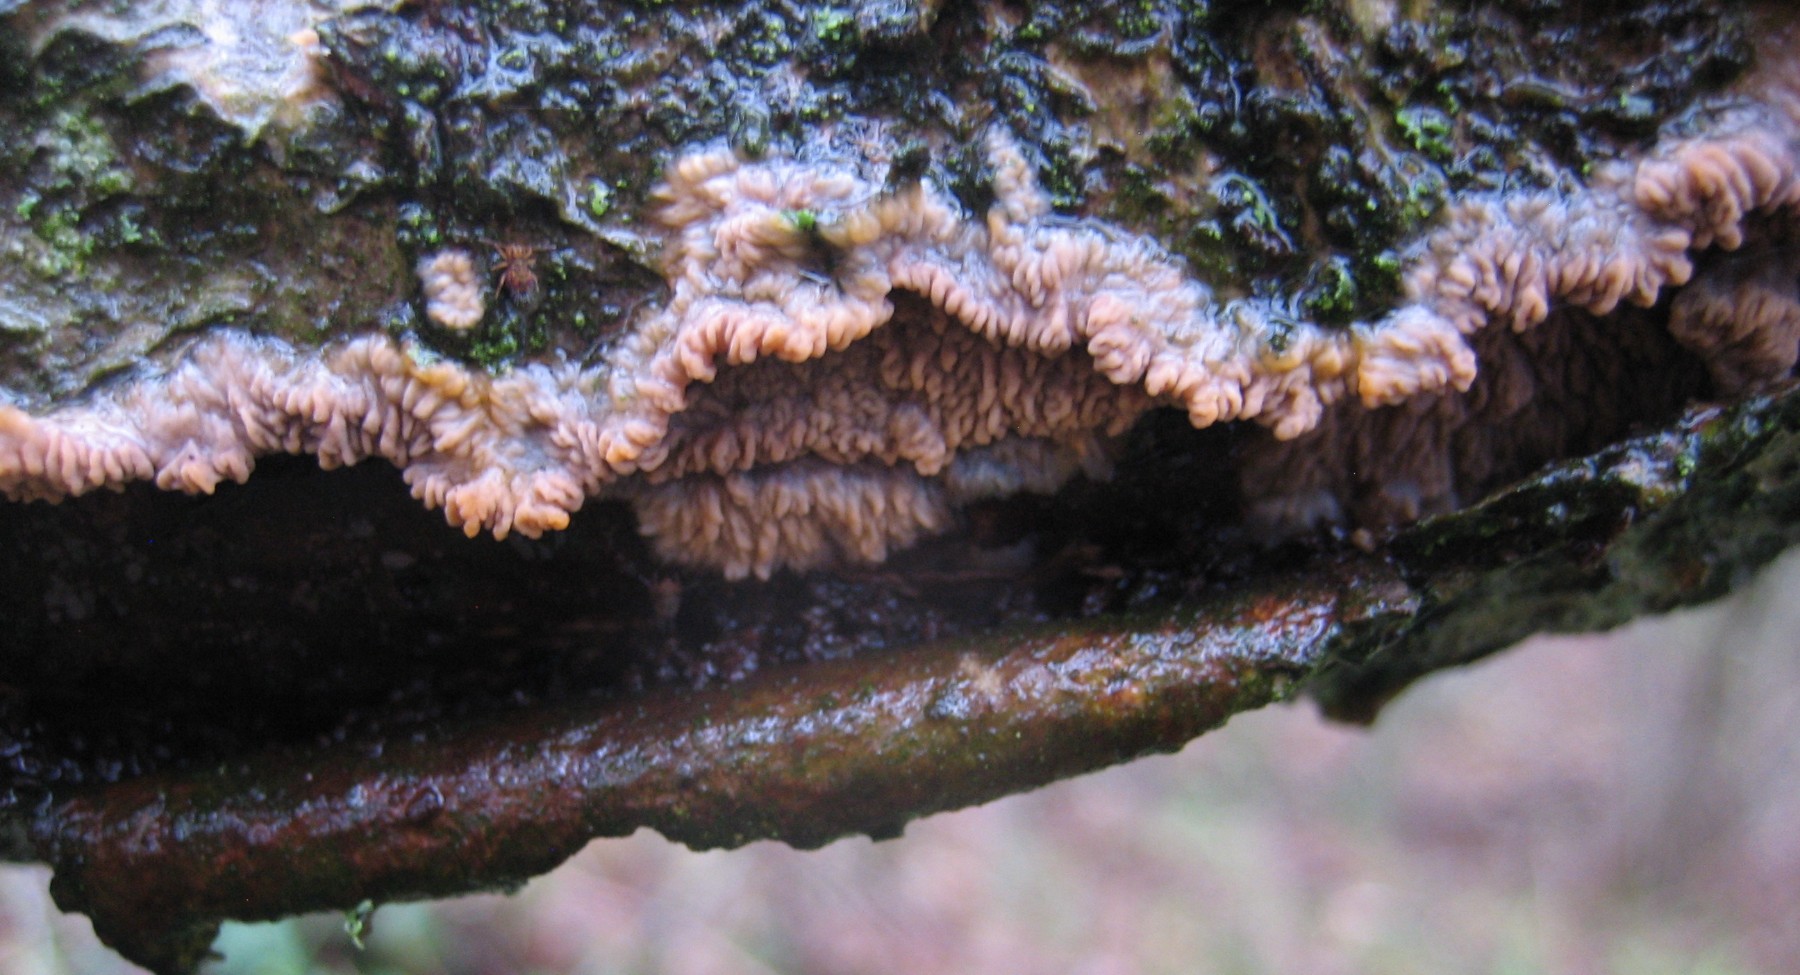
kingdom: Fungi
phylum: Basidiomycota
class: Agaricomycetes
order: Polyporales
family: Meruliaceae
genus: Phlebia
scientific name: Phlebia radiata
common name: stråle-åresvamp
